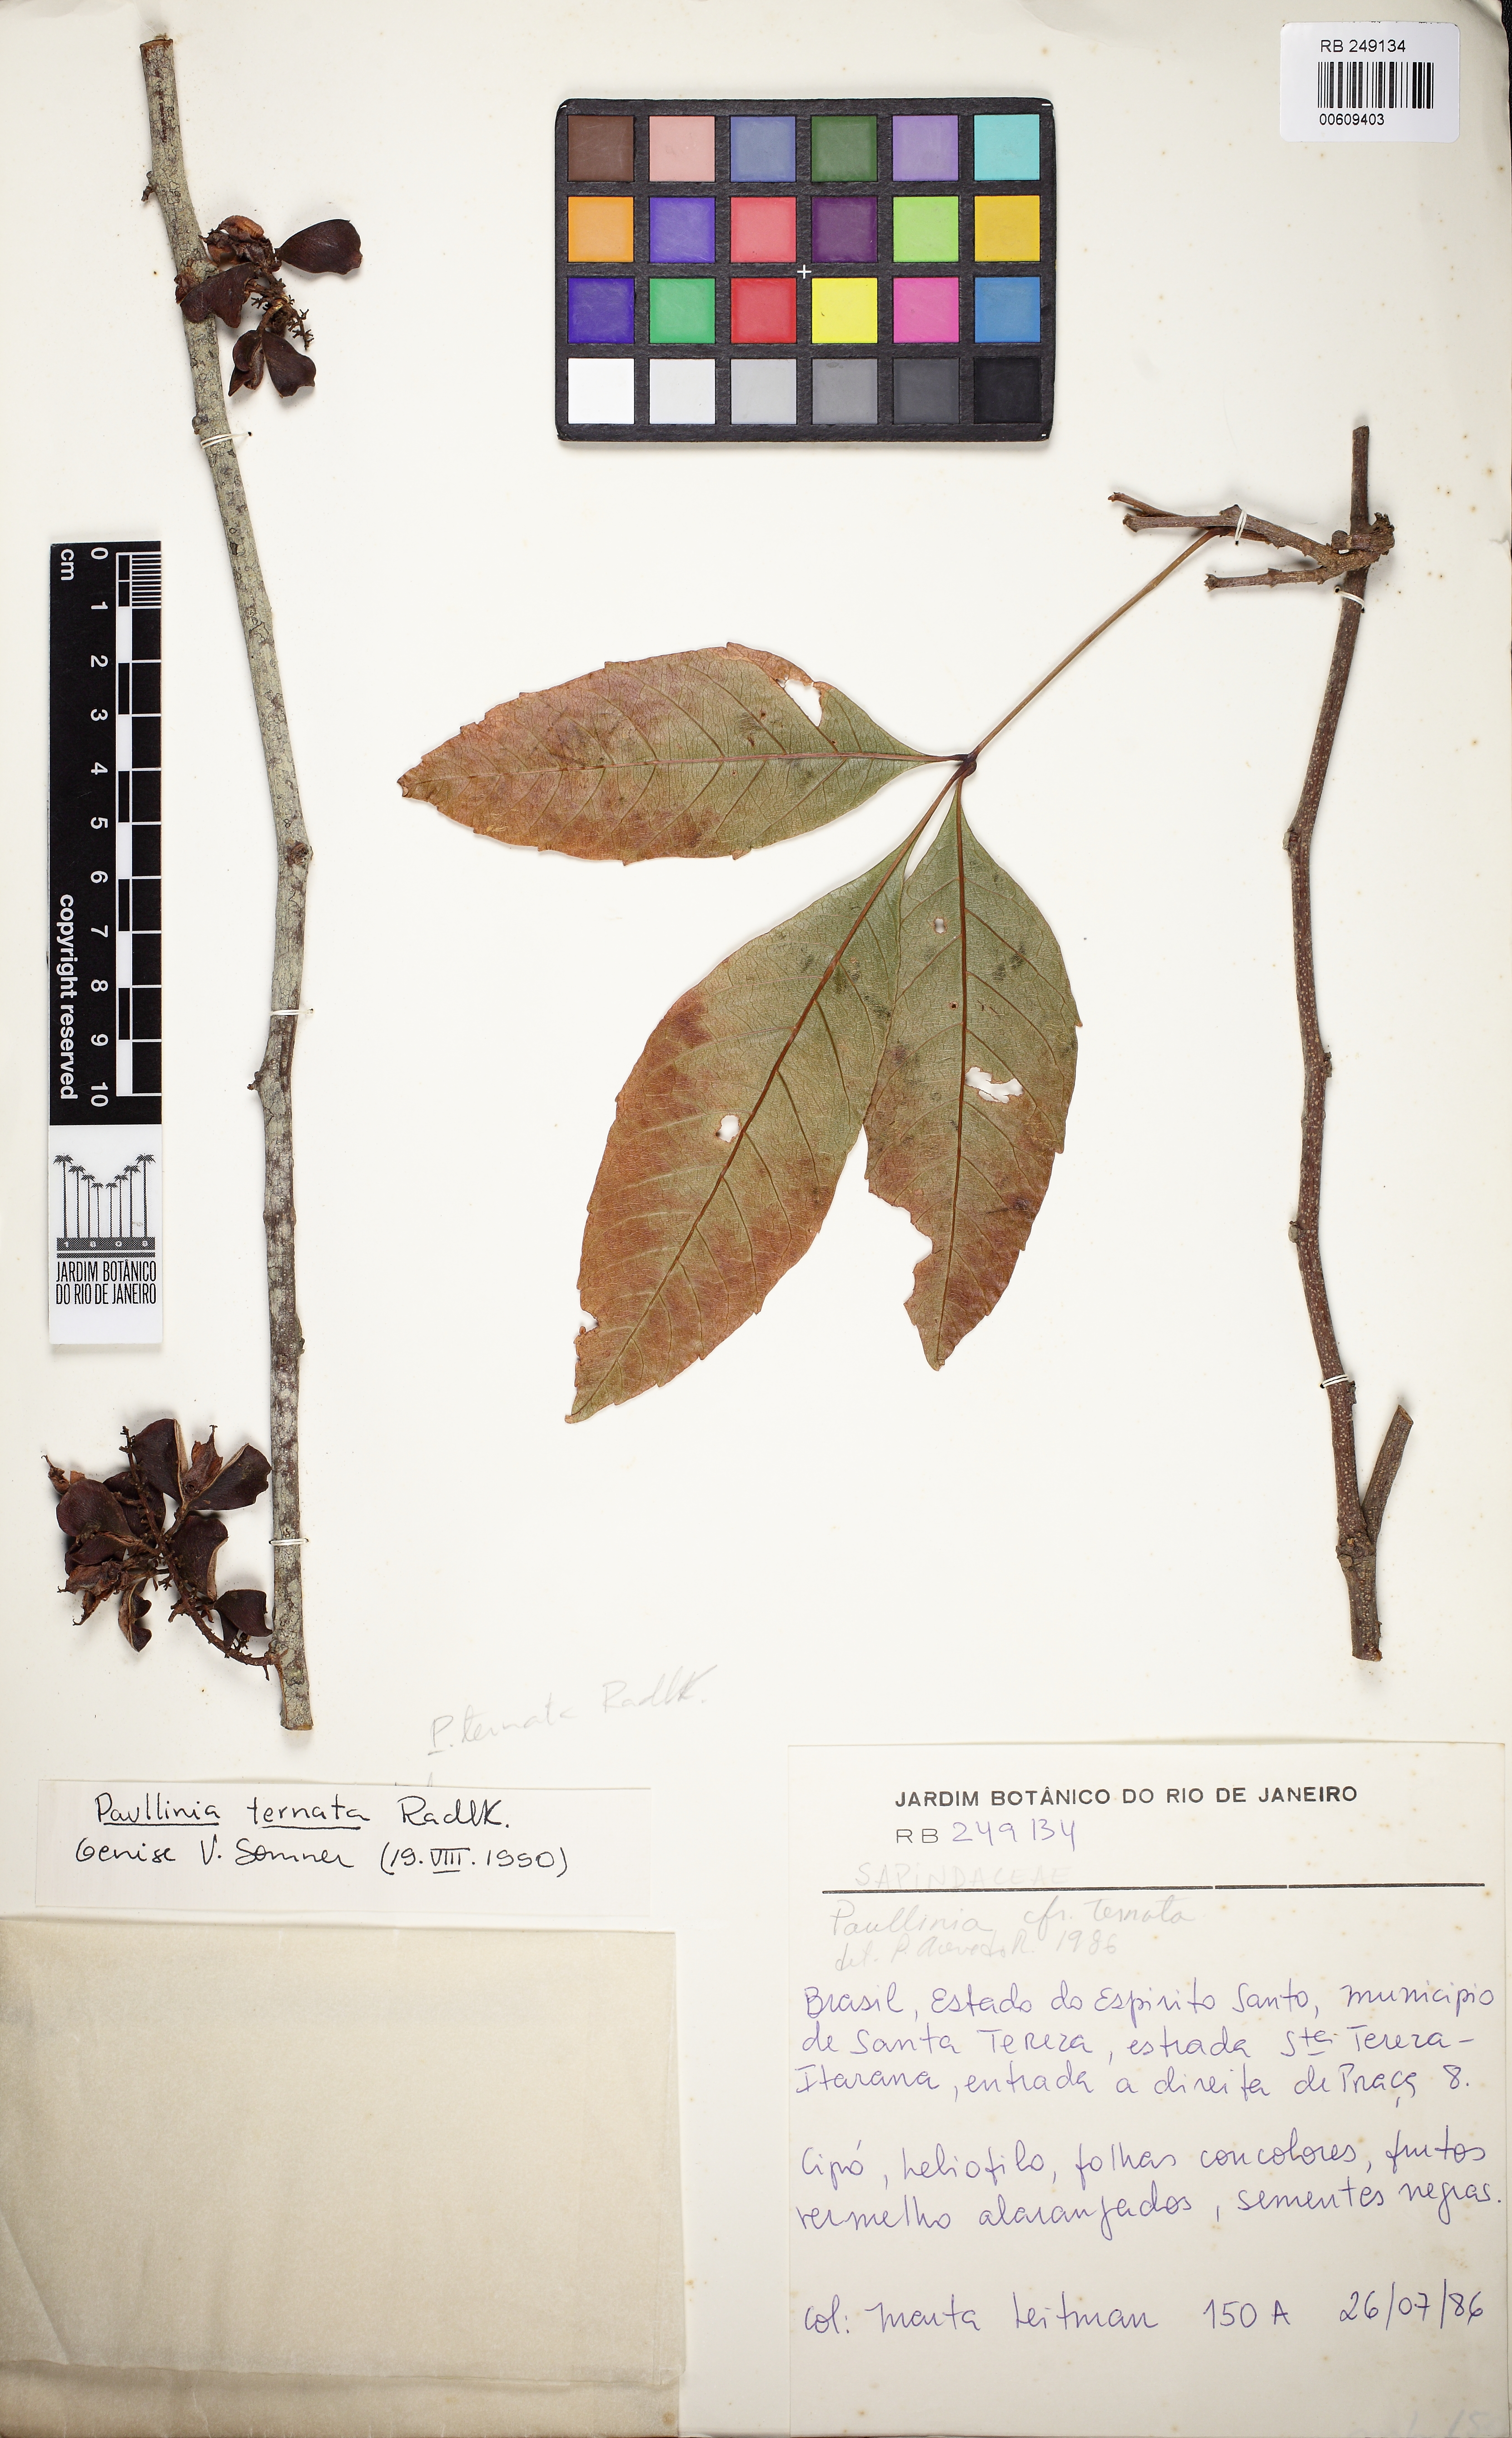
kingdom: Plantae
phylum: Tracheophyta
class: Magnoliopsida
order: Sapindales
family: Sapindaceae
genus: Paullinia
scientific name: Paullinia ternata
